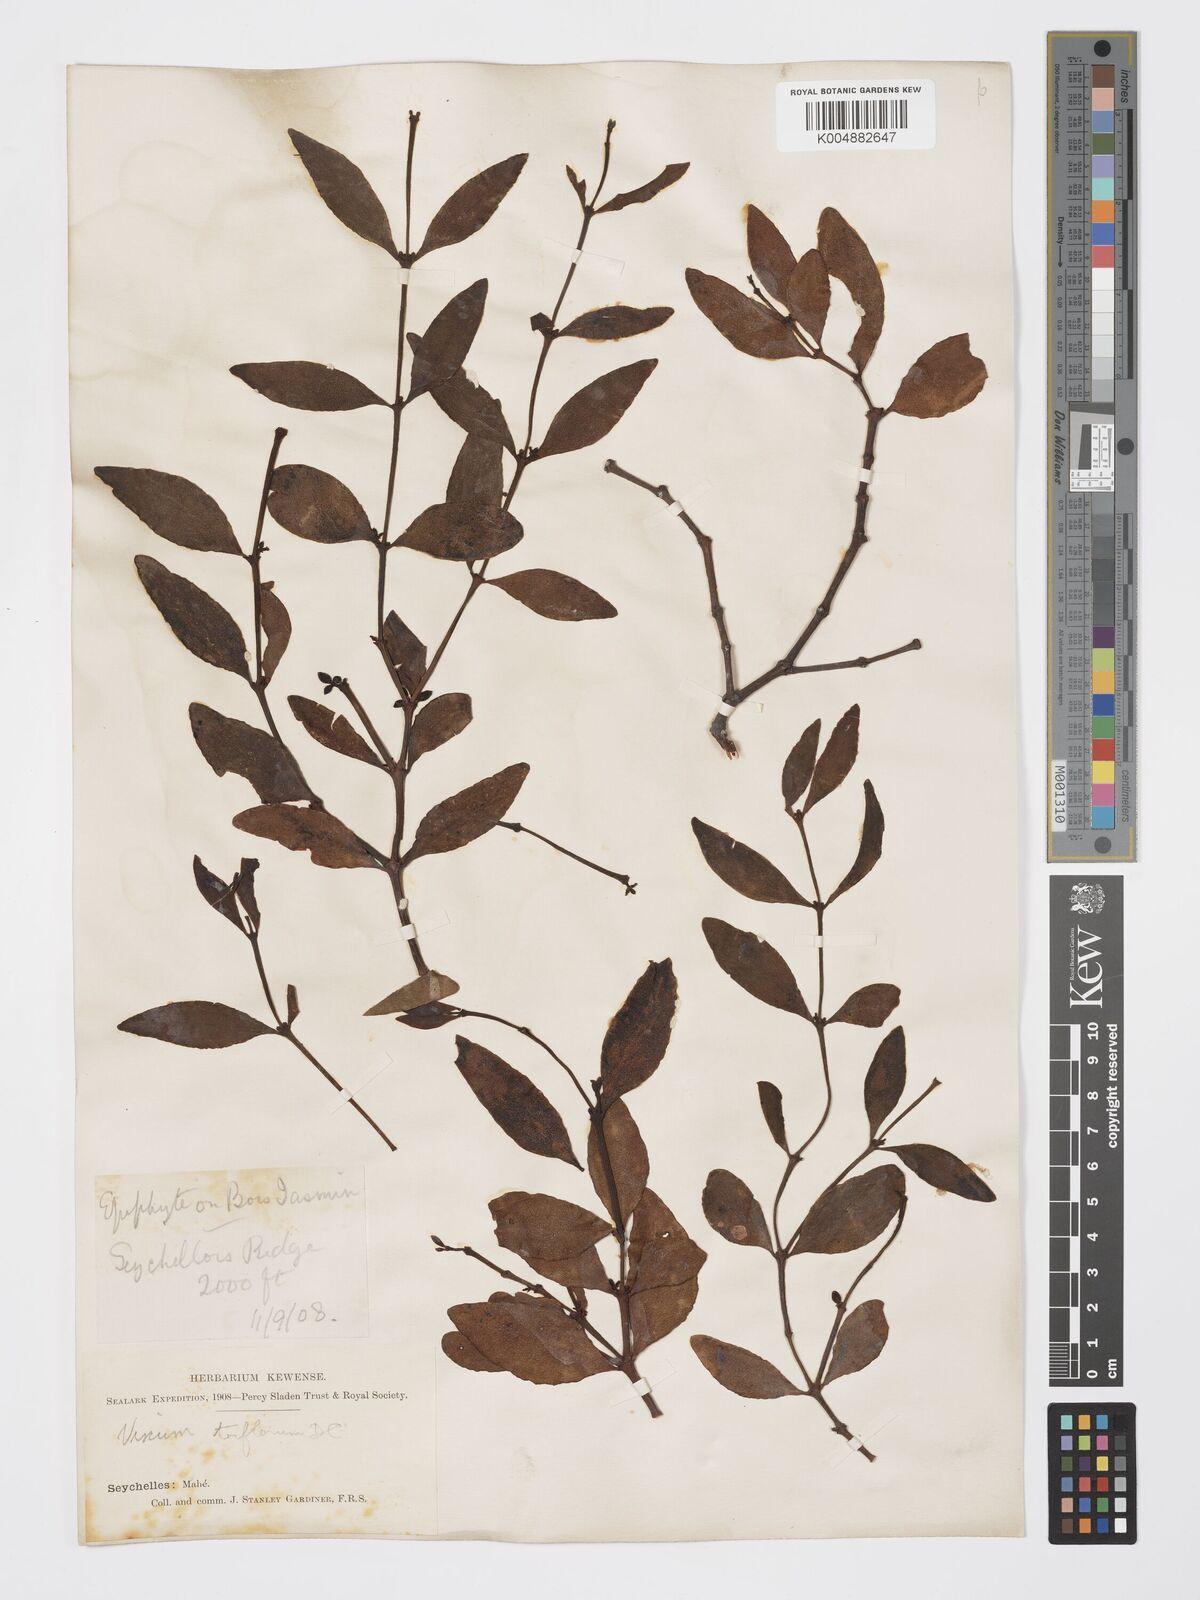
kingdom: Plantae
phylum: Tracheophyta
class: Magnoliopsida
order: Santalales
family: Viscaceae
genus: Viscum
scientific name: Viscum triflorum
